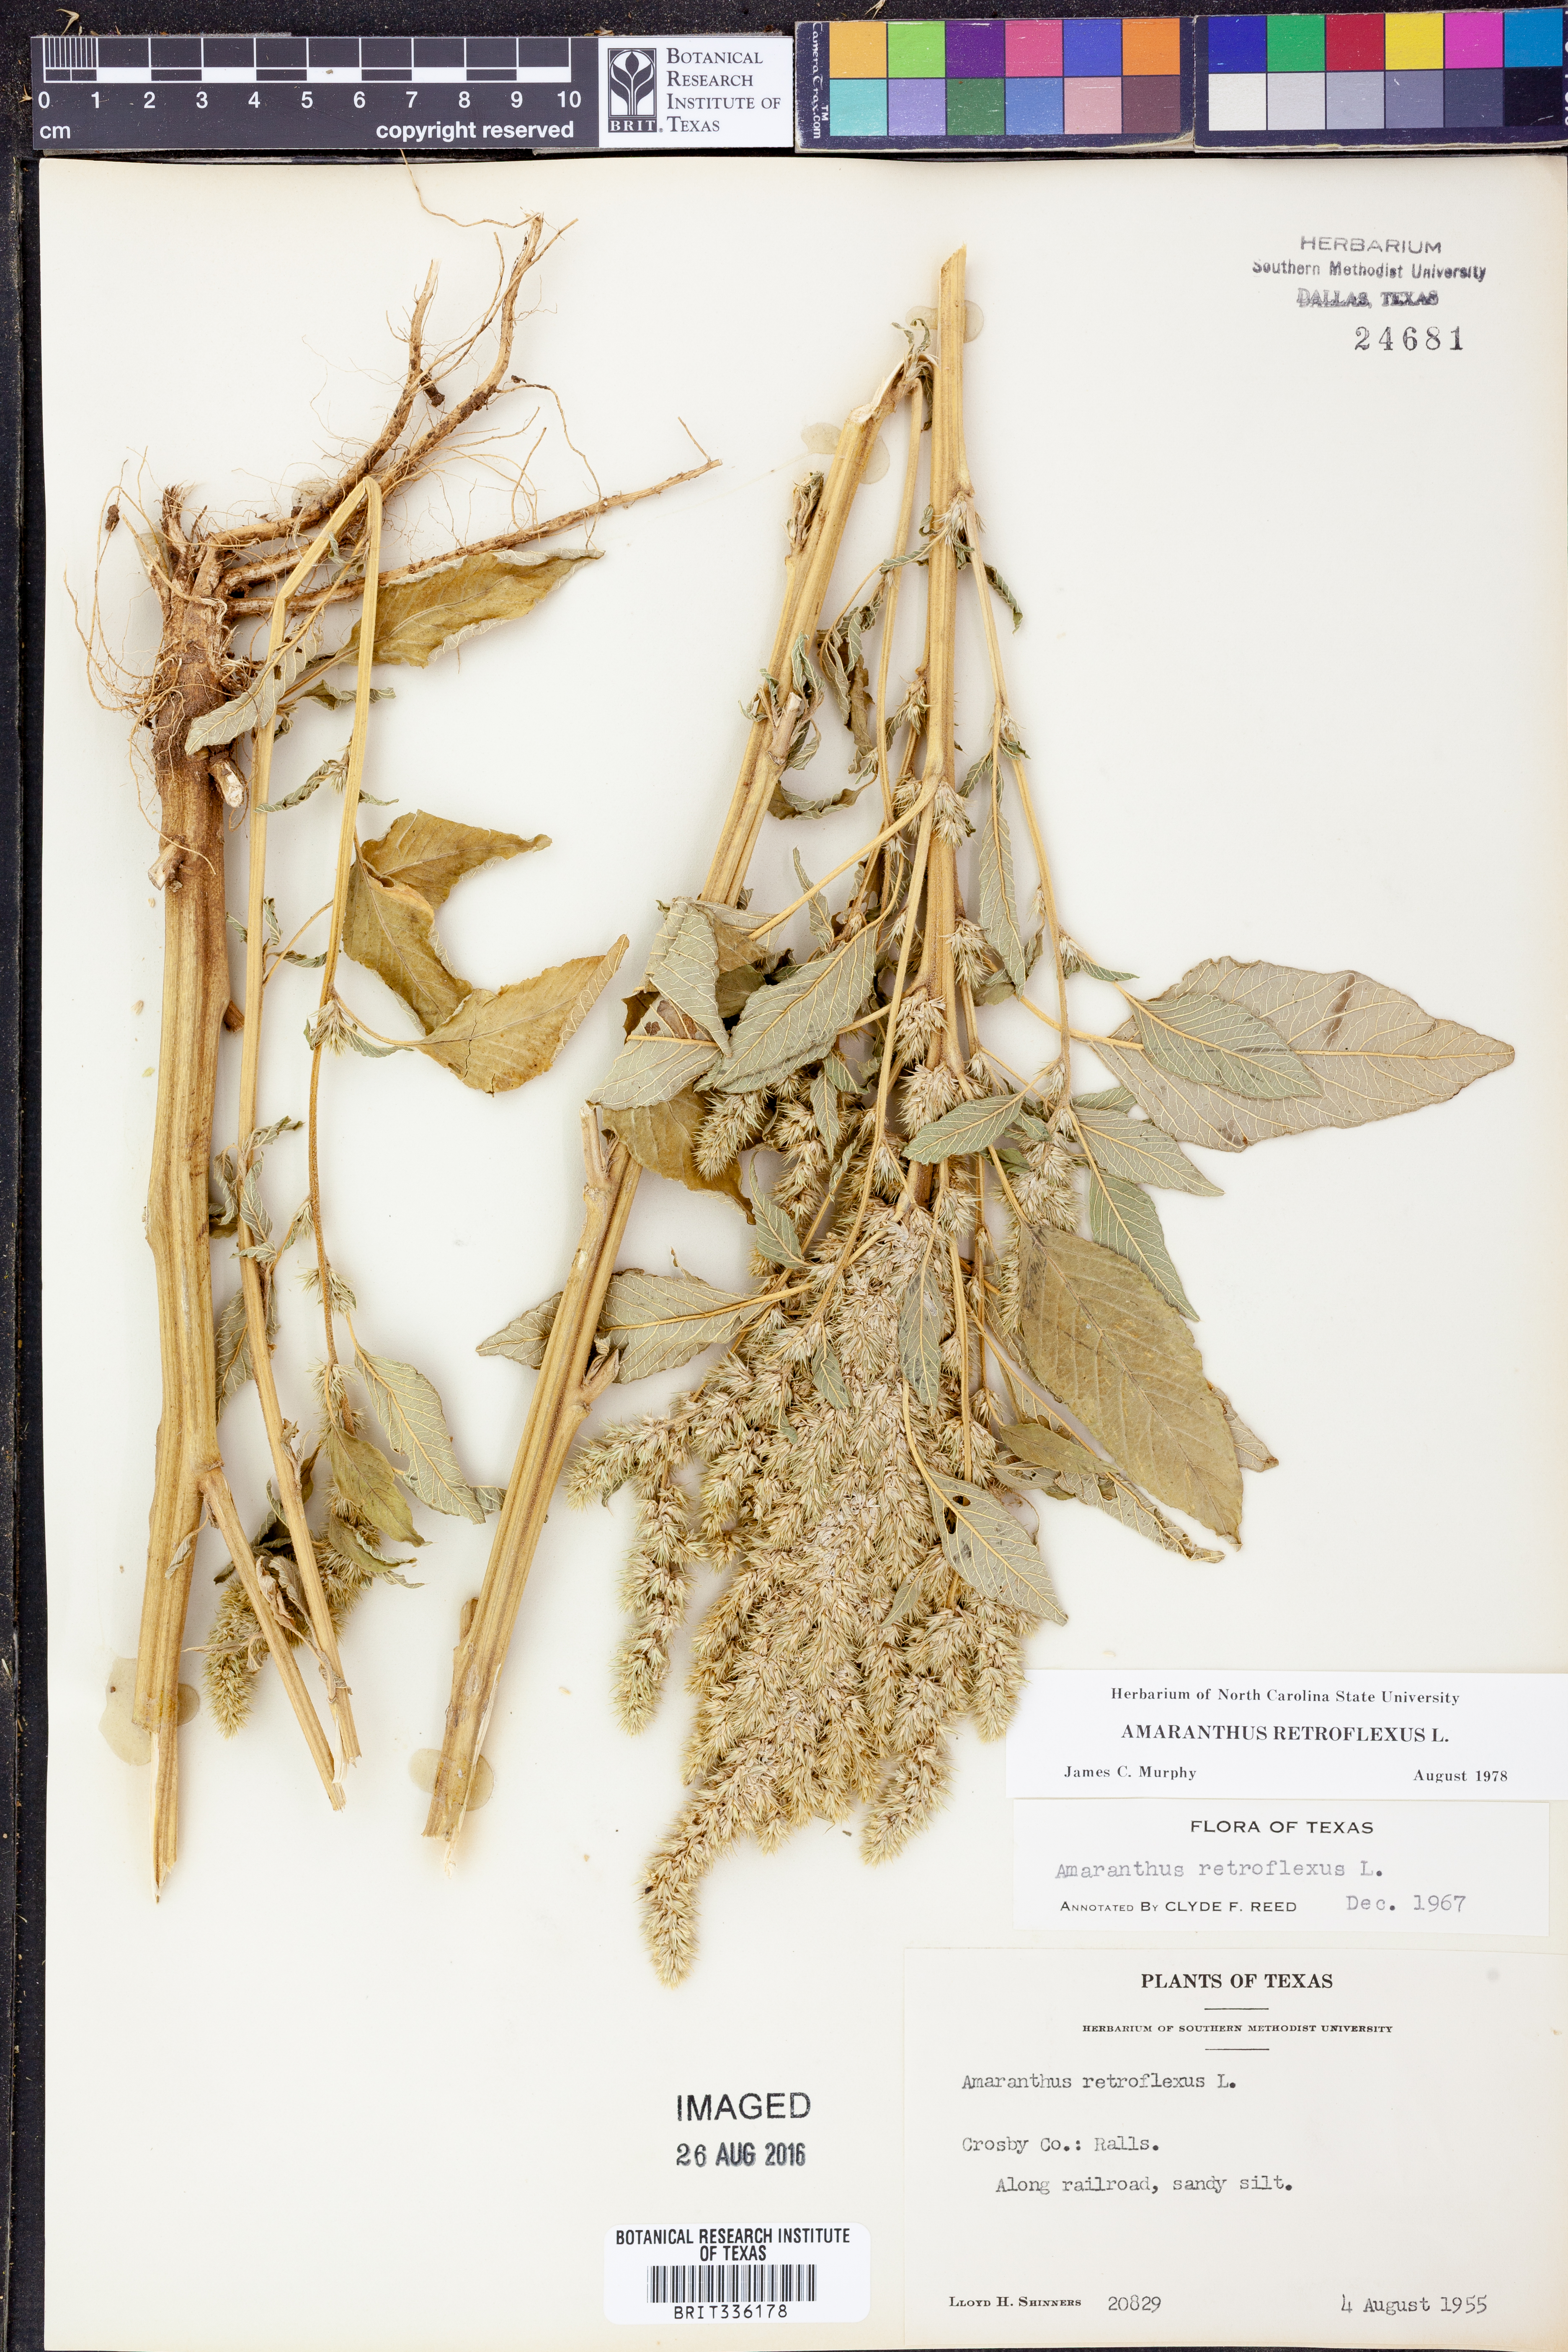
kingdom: Plantae
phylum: Tracheophyta
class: Magnoliopsida
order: Caryophyllales
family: Amaranthaceae
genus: Amaranthus
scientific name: Amaranthus retroflexus
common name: Redroot amaranth
